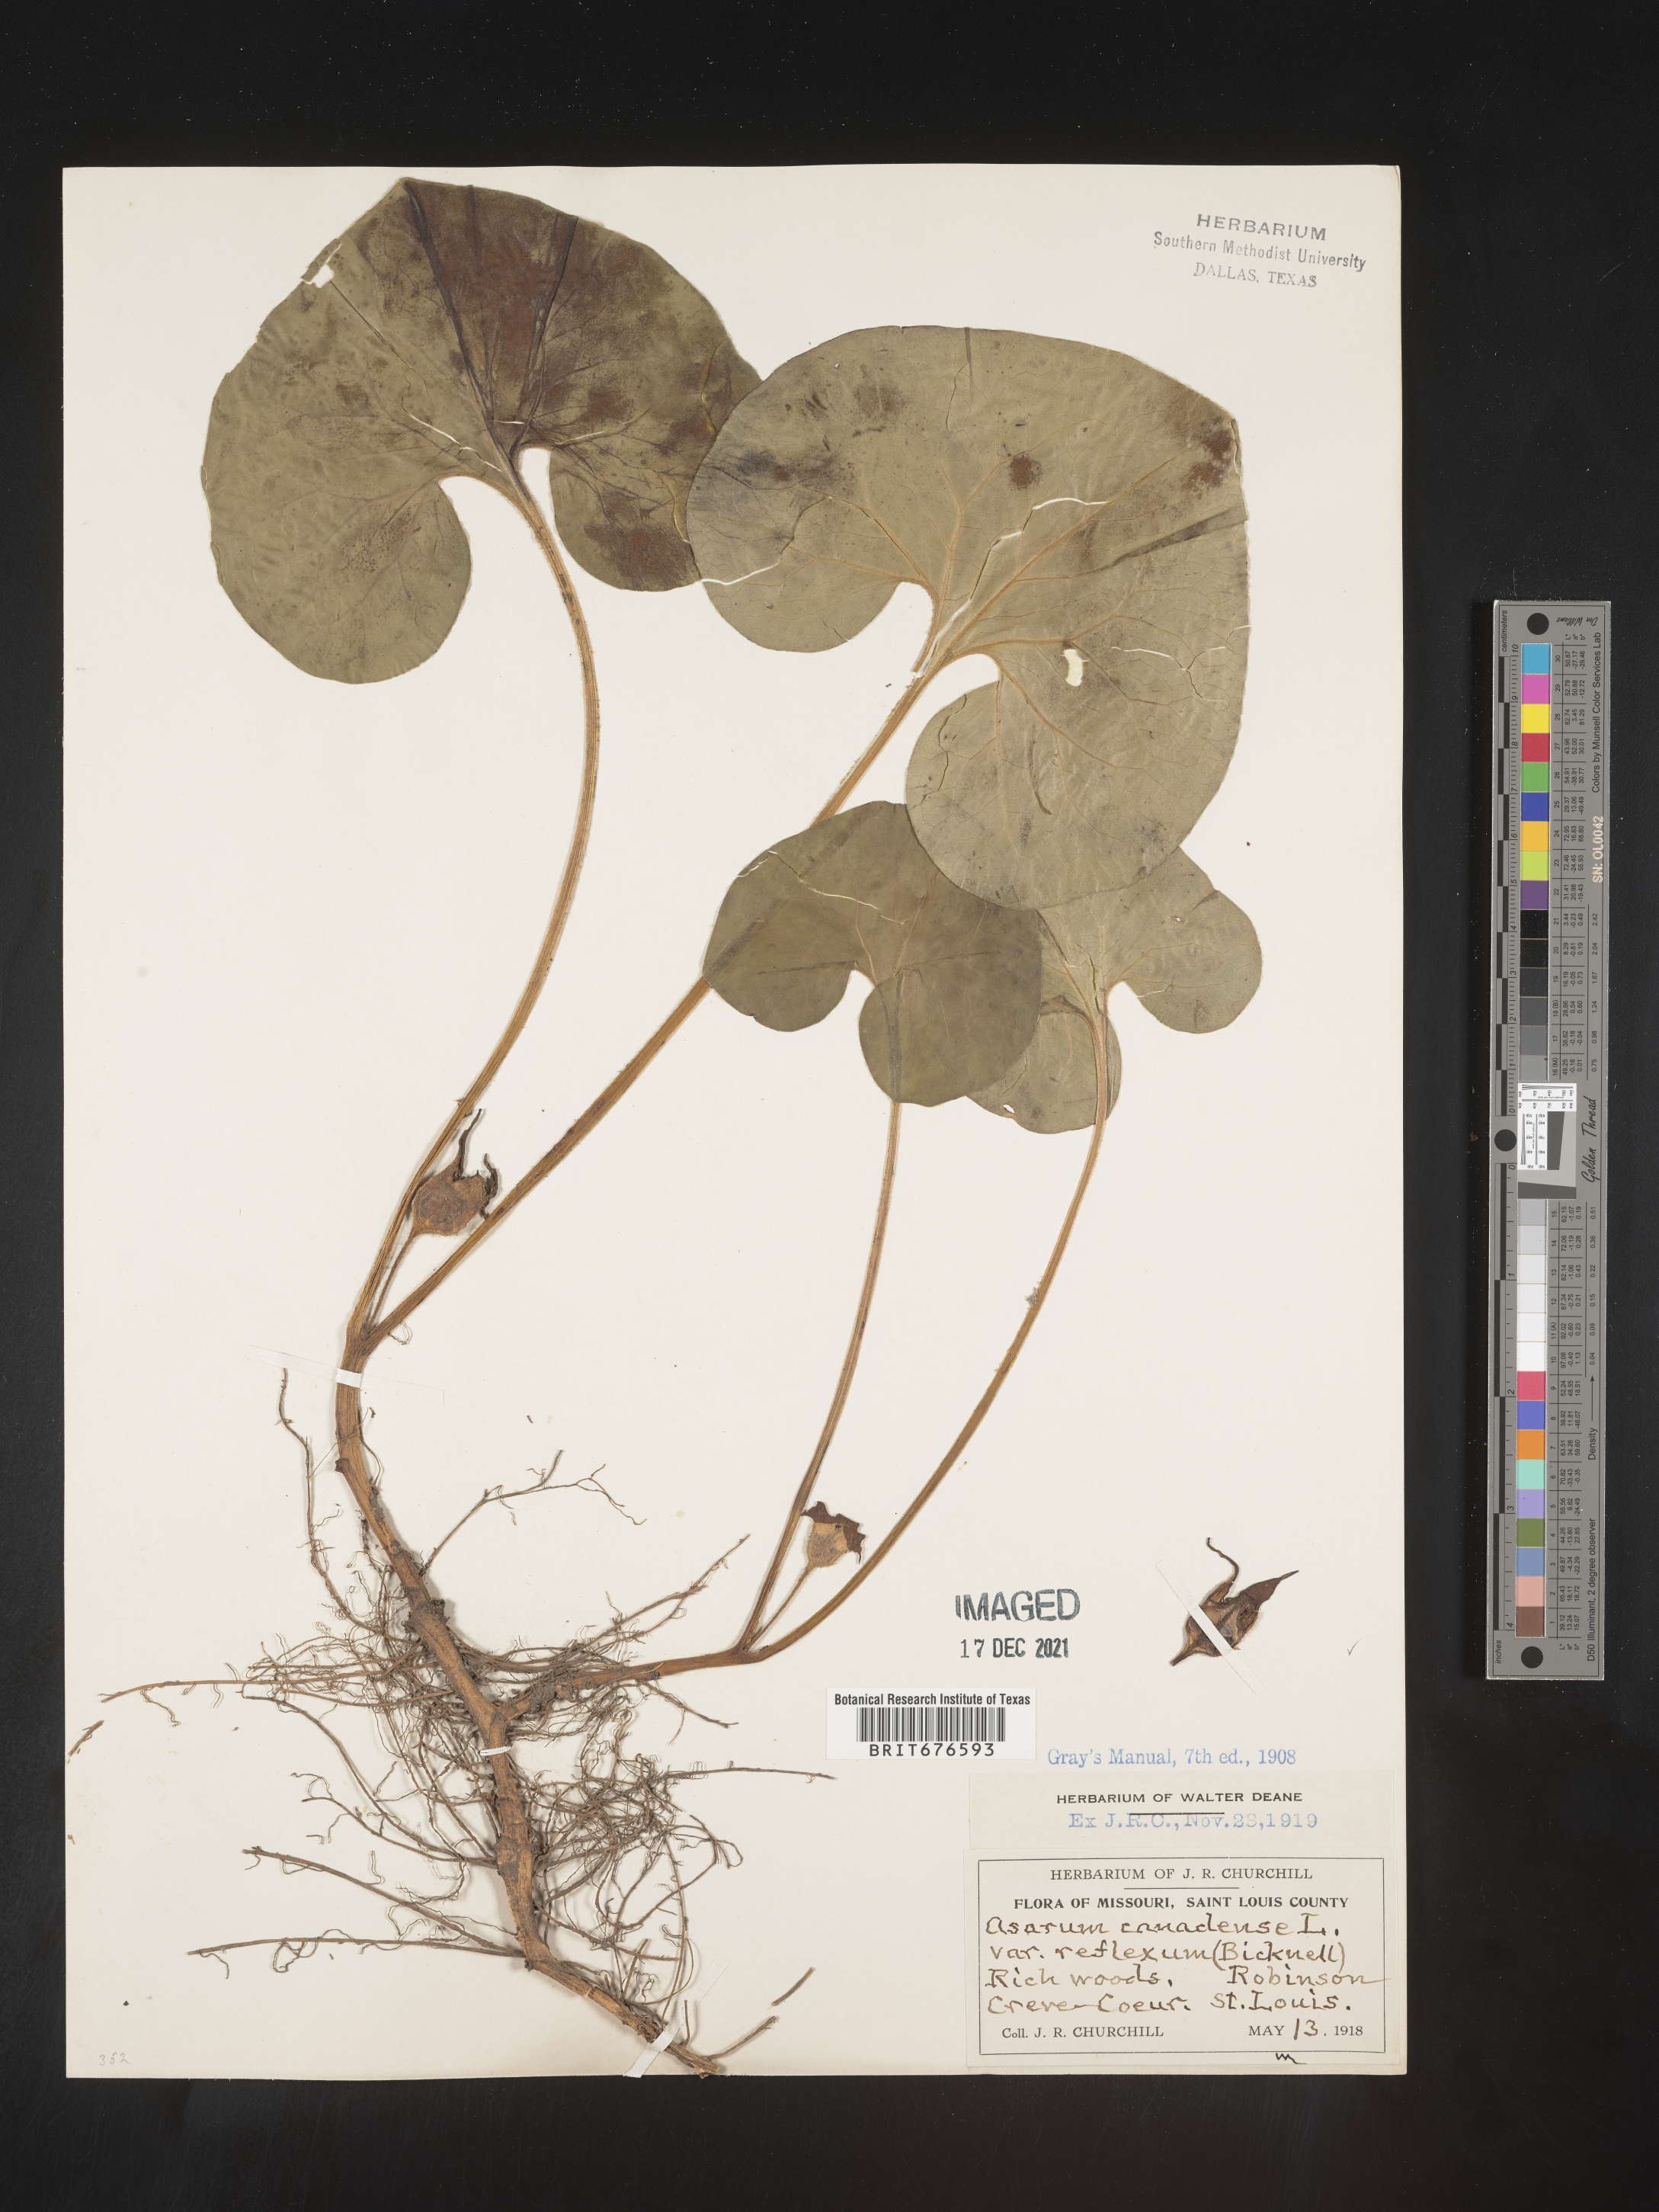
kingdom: Plantae
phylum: Tracheophyta
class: Magnoliopsida
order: Piperales
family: Aristolochiaceae
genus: Asarum
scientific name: Asarum canadense
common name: Wild ginger
